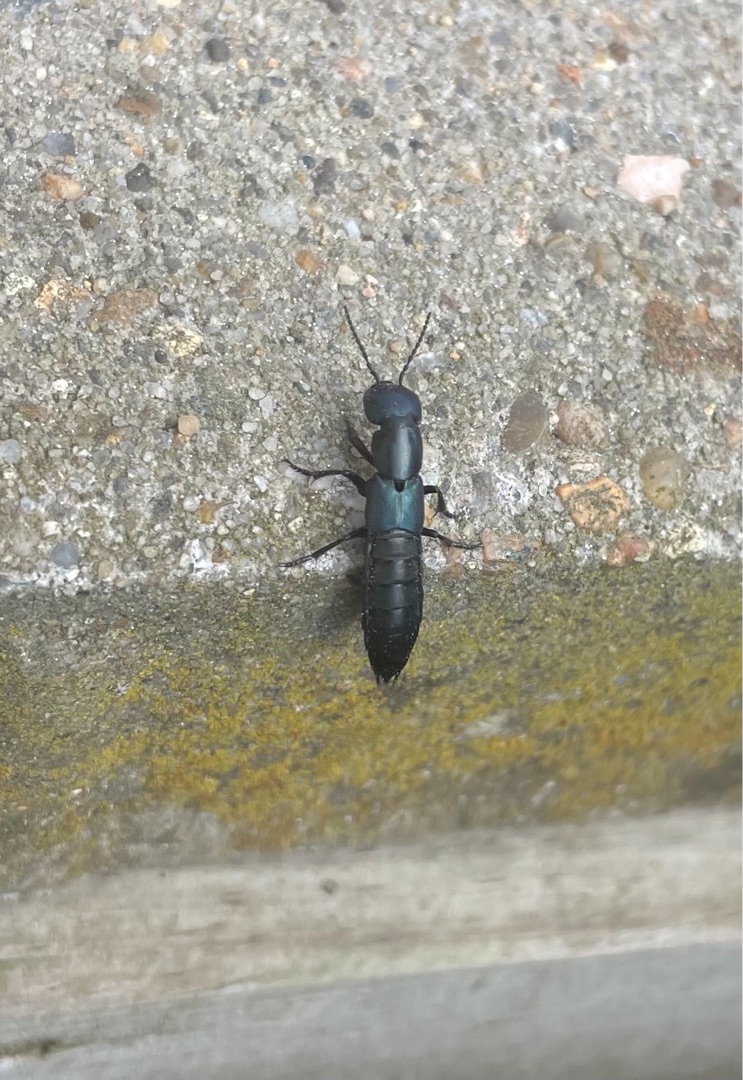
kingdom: Animalia
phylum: Arthropoda
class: Insecta
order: Coleoptera
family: Staphylinidae
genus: Ocypus
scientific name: Ocypus ophthalmicus
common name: Blå kæmperovbille
